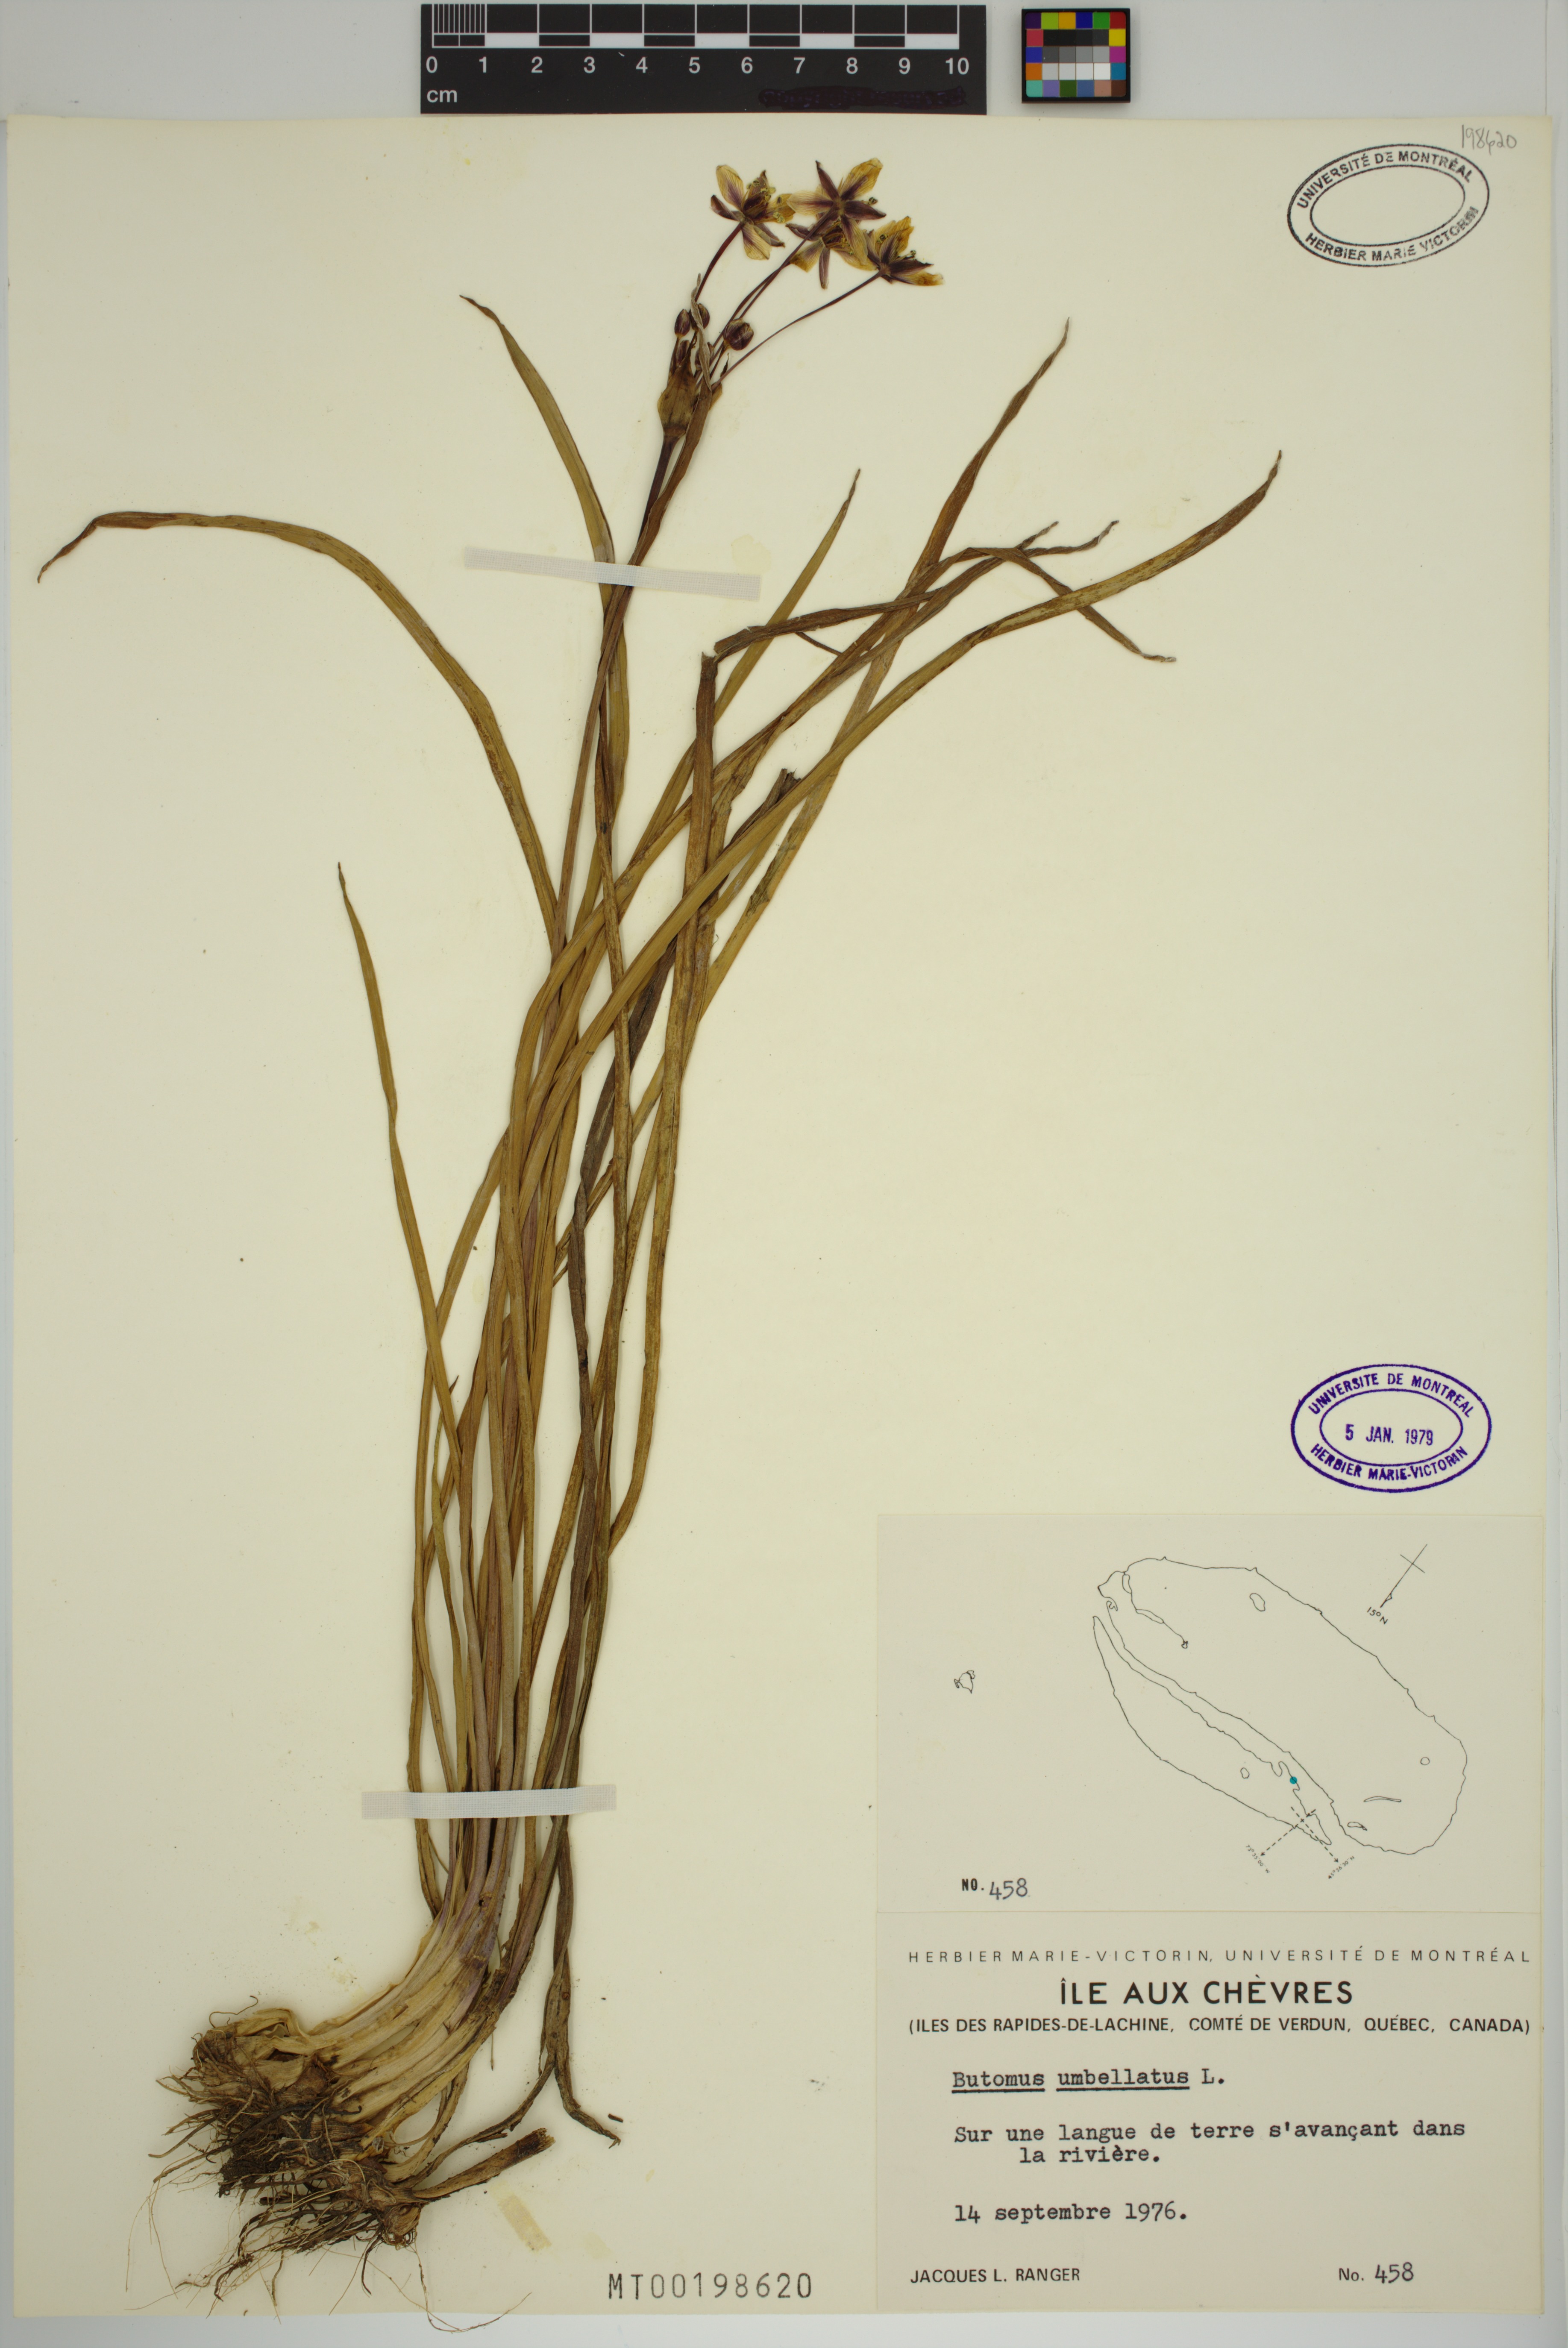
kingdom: Plantae
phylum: Tracheophyta
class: Liliopsida
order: Alismatales
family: Butomaceae
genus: Butomus
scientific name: Butomus umbellatus
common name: Flowering-rush
